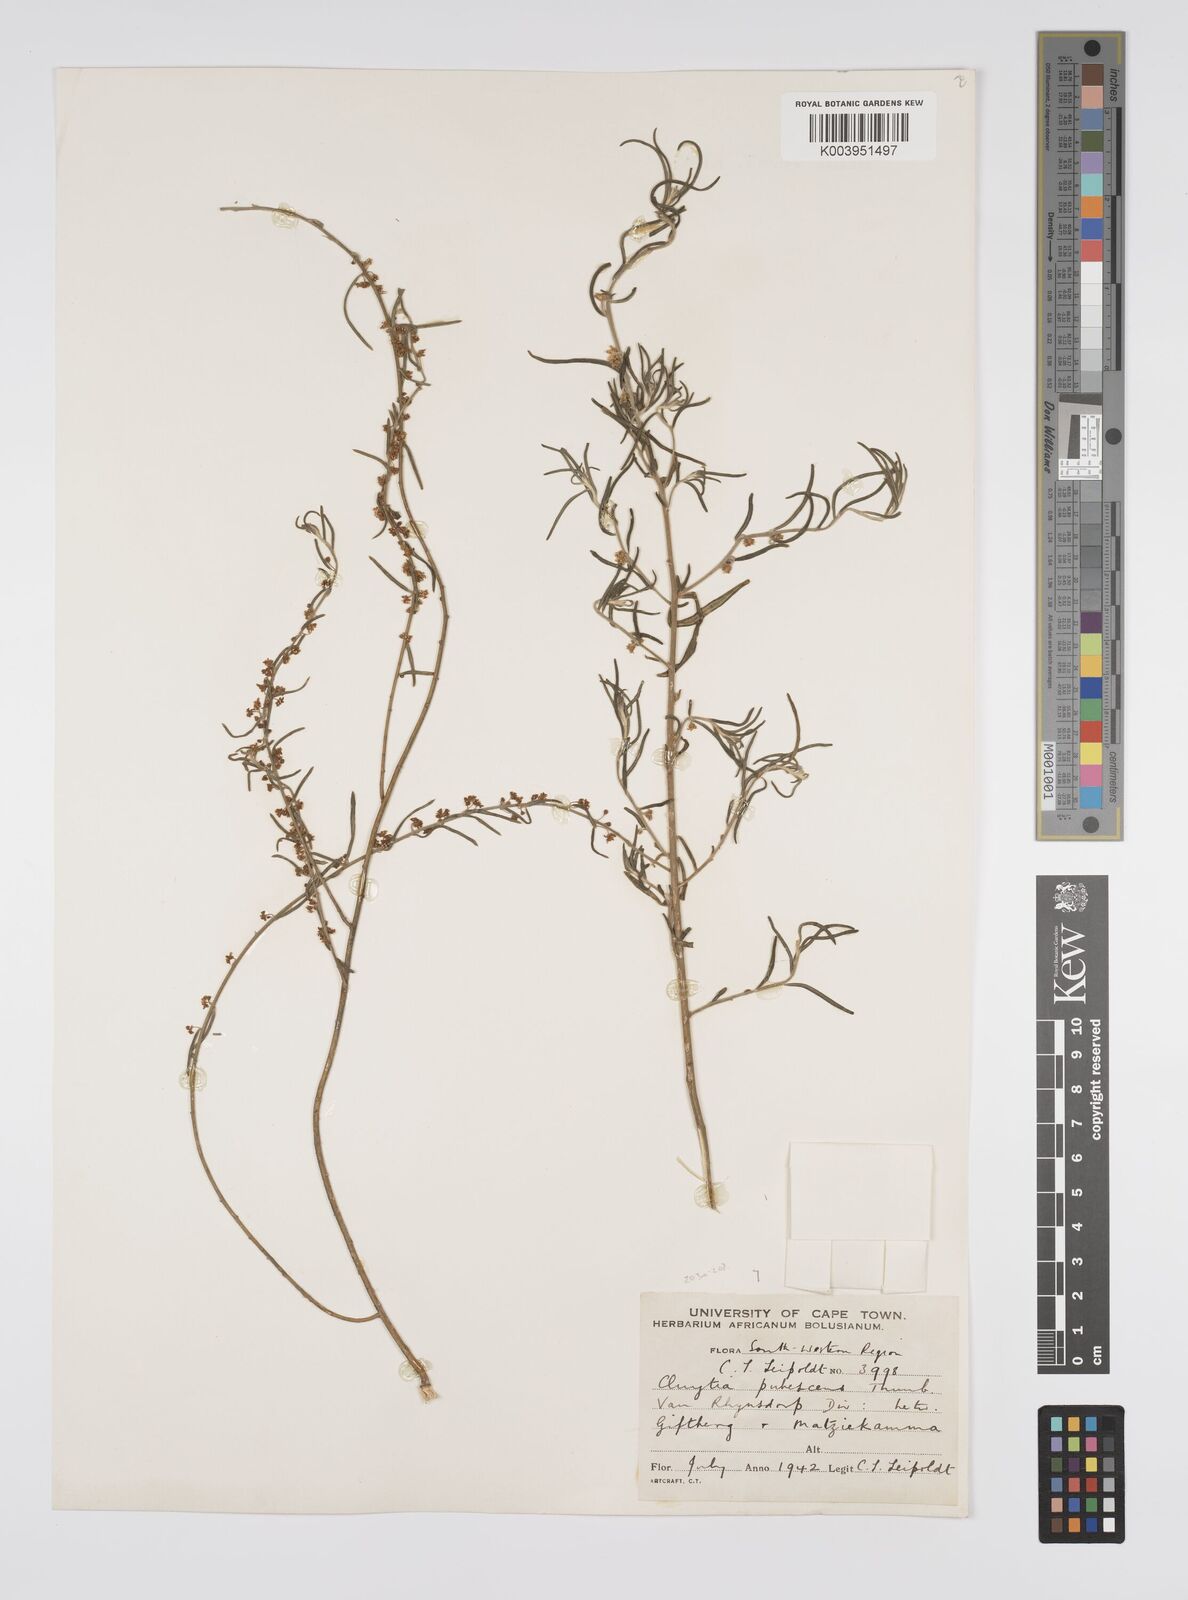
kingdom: Plantae
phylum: Tracheophyta
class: Magnoliopsida
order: Malpighiales
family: Peraceae
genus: Clutia
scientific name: Clutia
